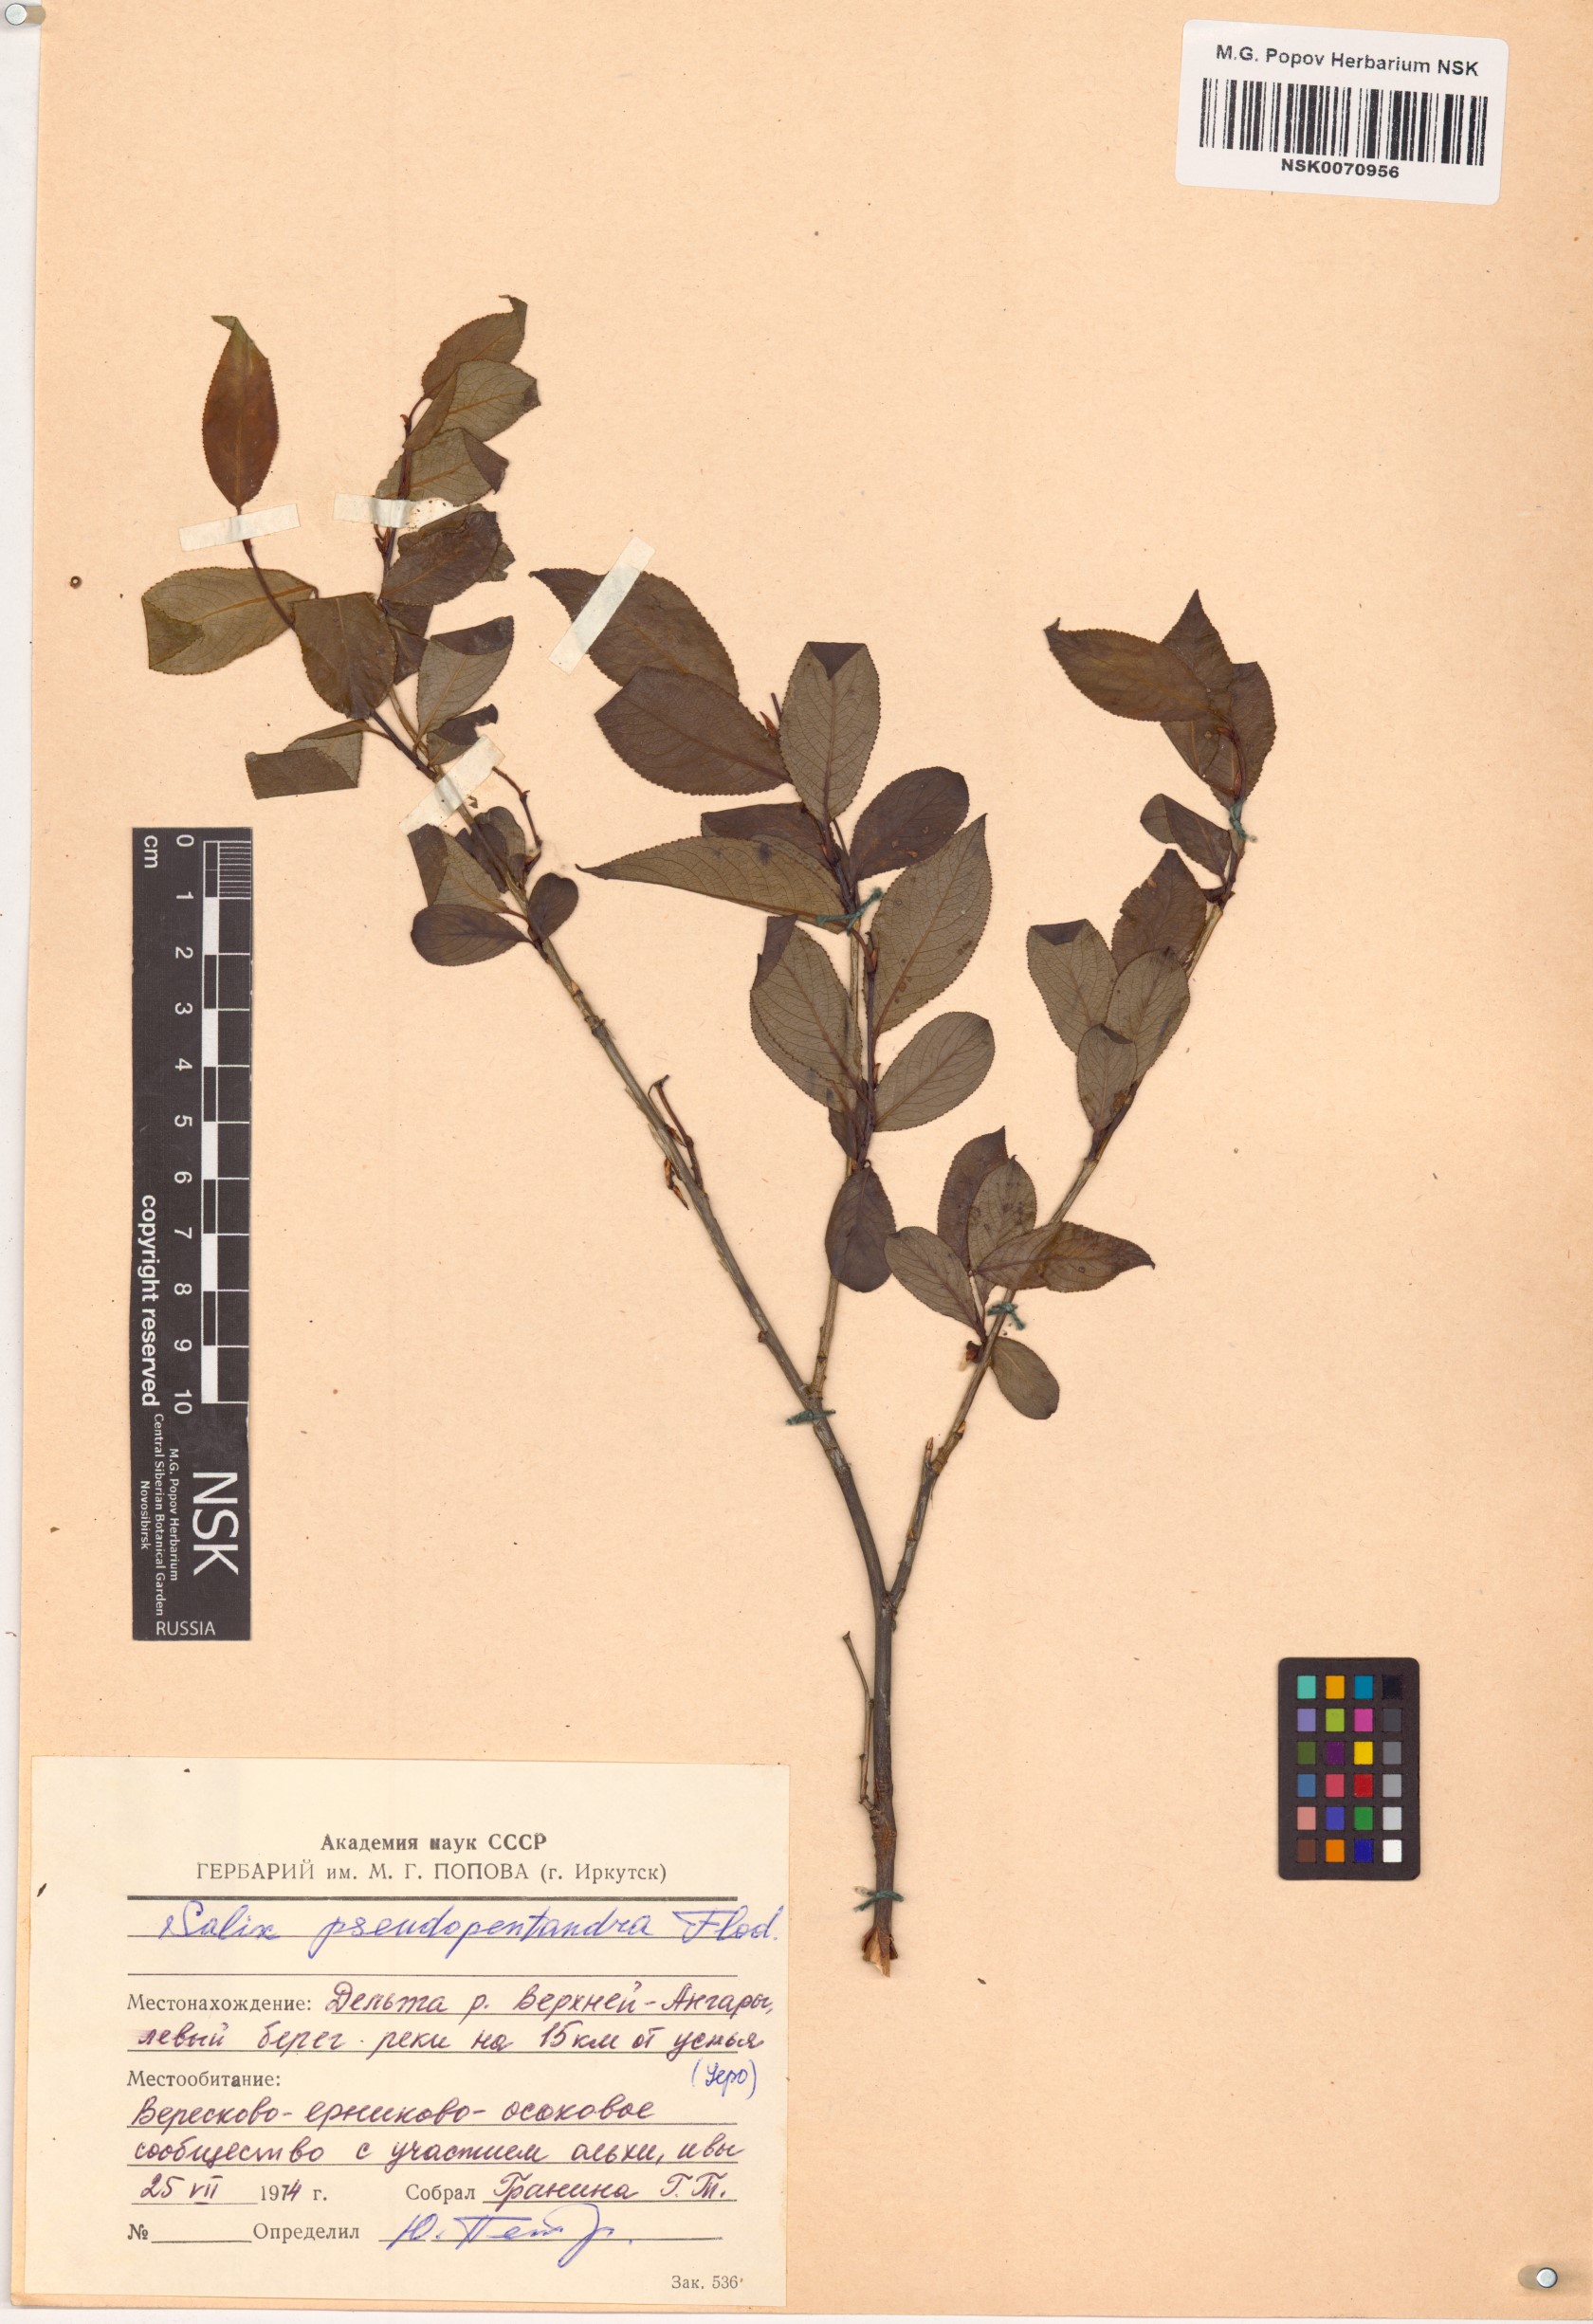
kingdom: Plantae
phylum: Tracheophyta
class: Magnoliopsida
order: Malpighiales
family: Salicaceae
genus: Salix
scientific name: Salix pseudopentandra
